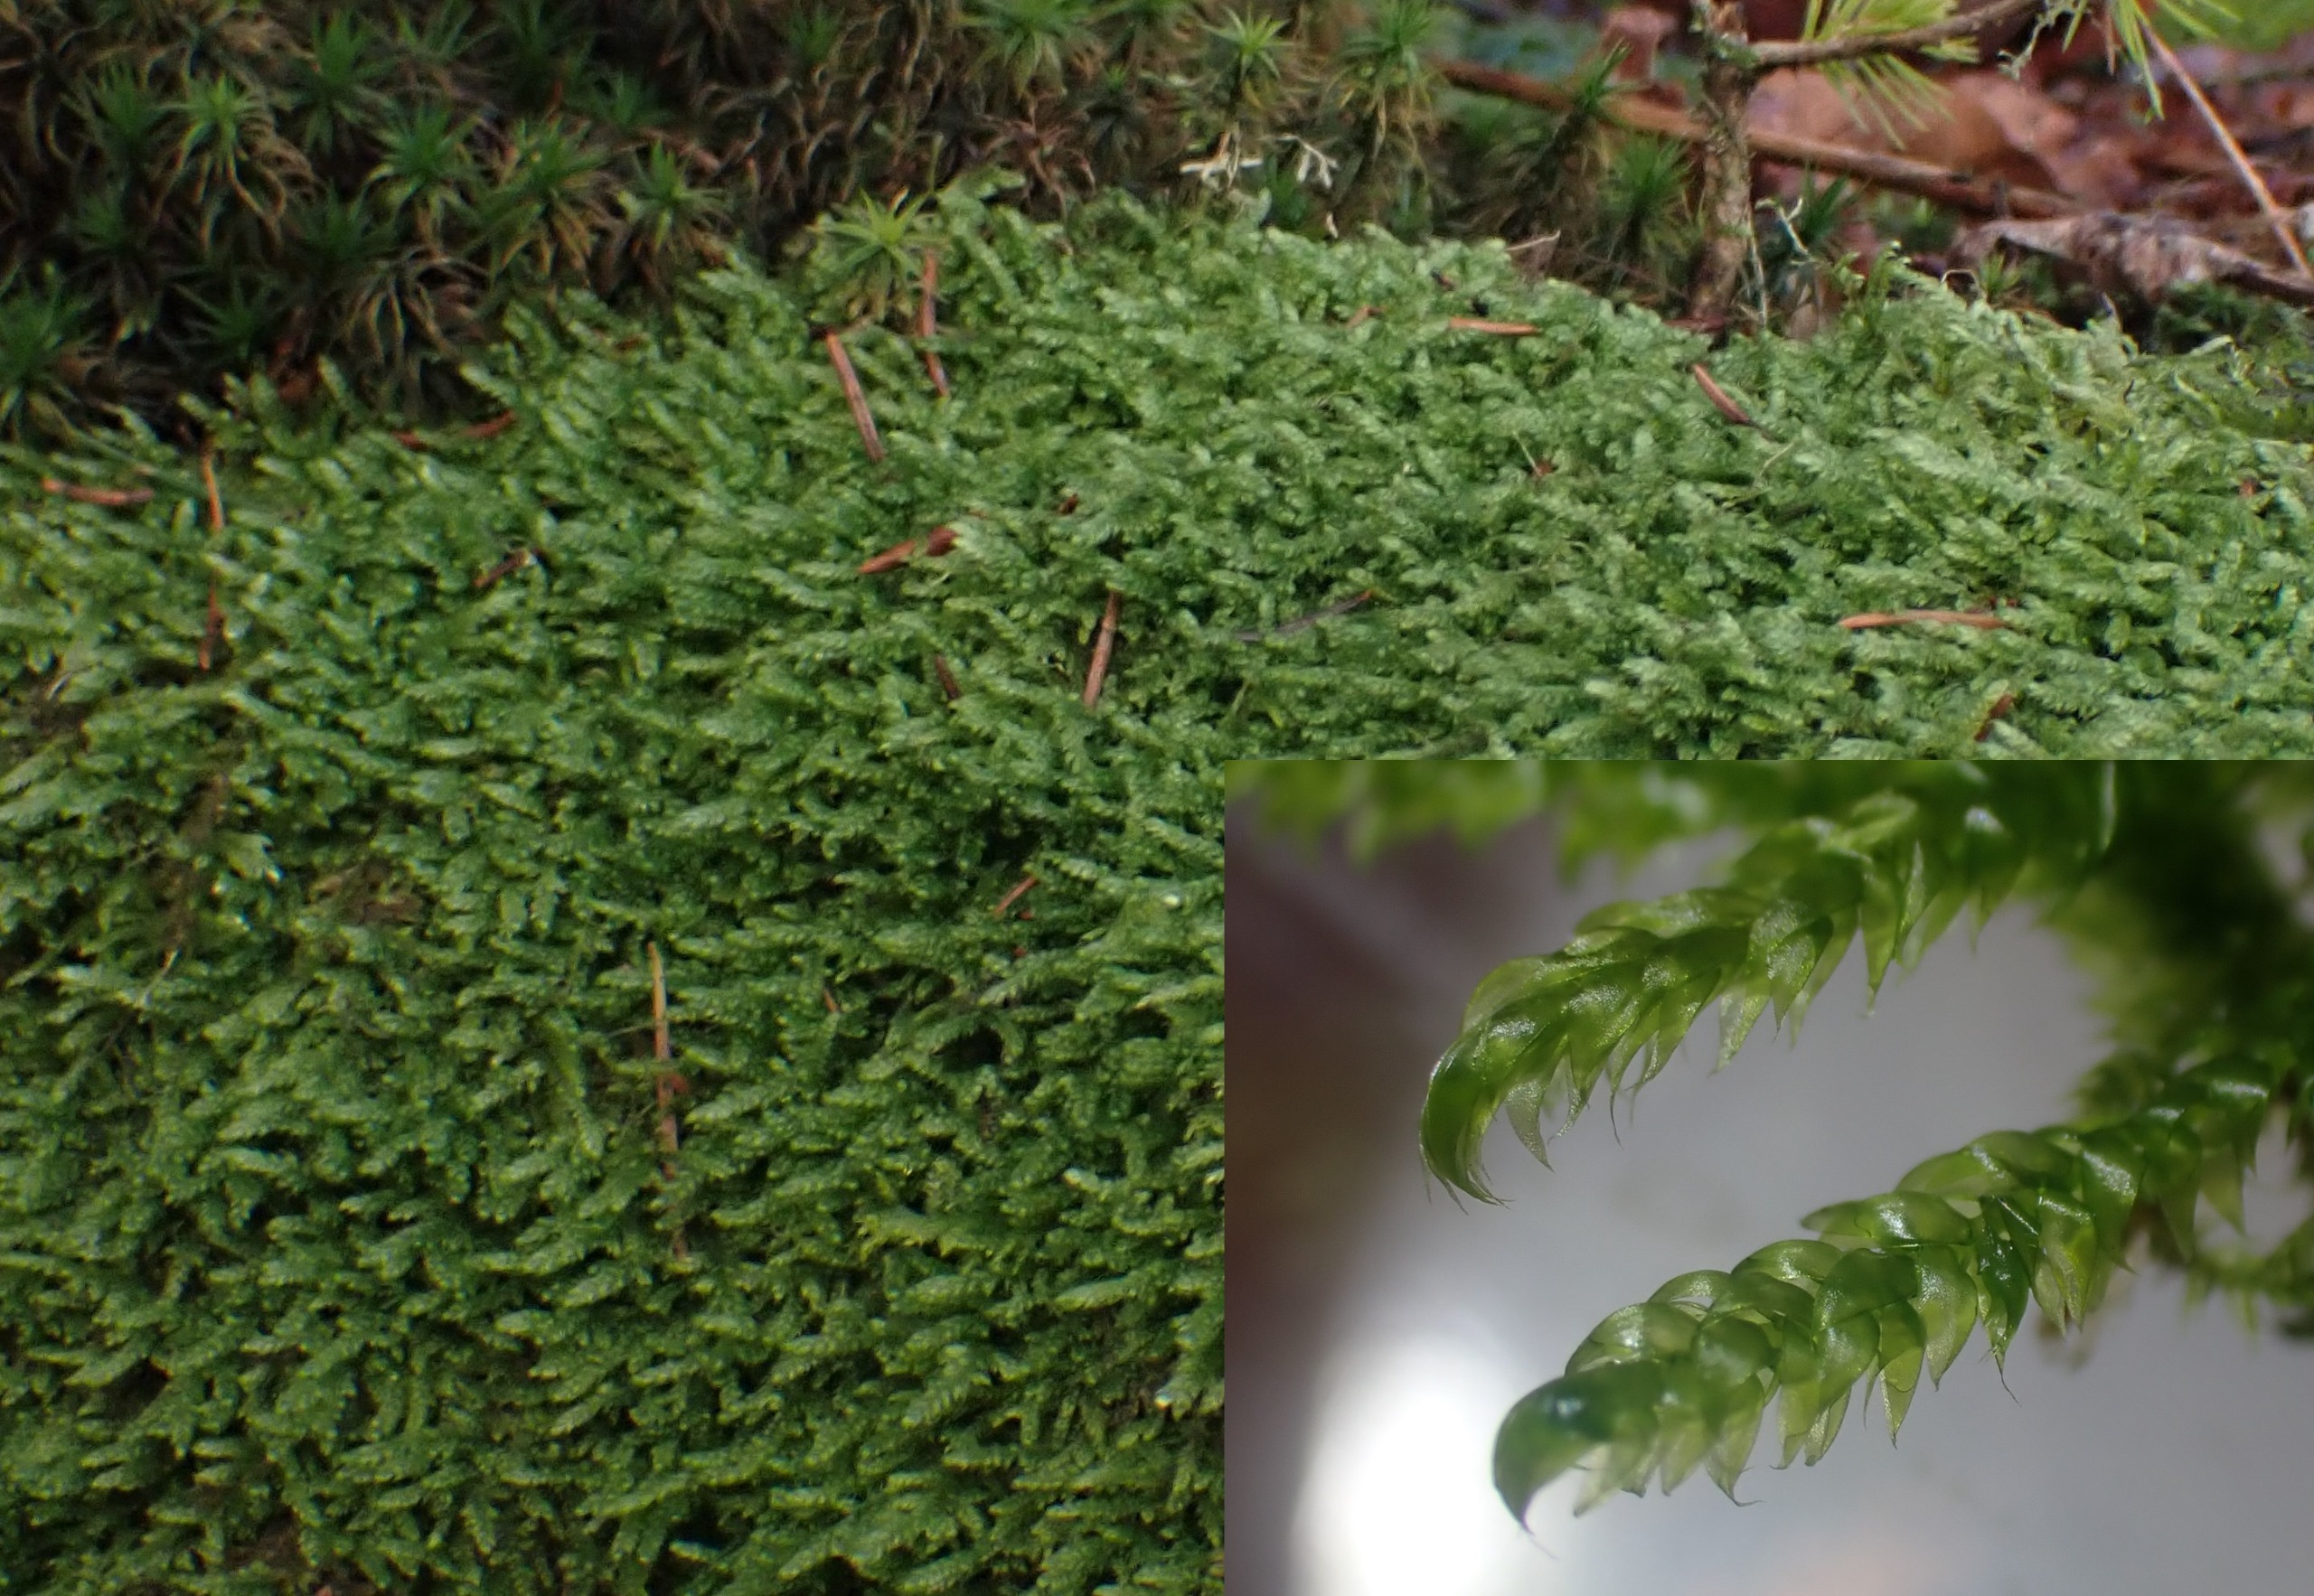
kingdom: Plantae
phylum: Bryophyta
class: Bryopsida
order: Hypnales
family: Hypnaceae
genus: Hypnum
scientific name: Hypnum cupressiforme
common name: Almindelig cypresmos
